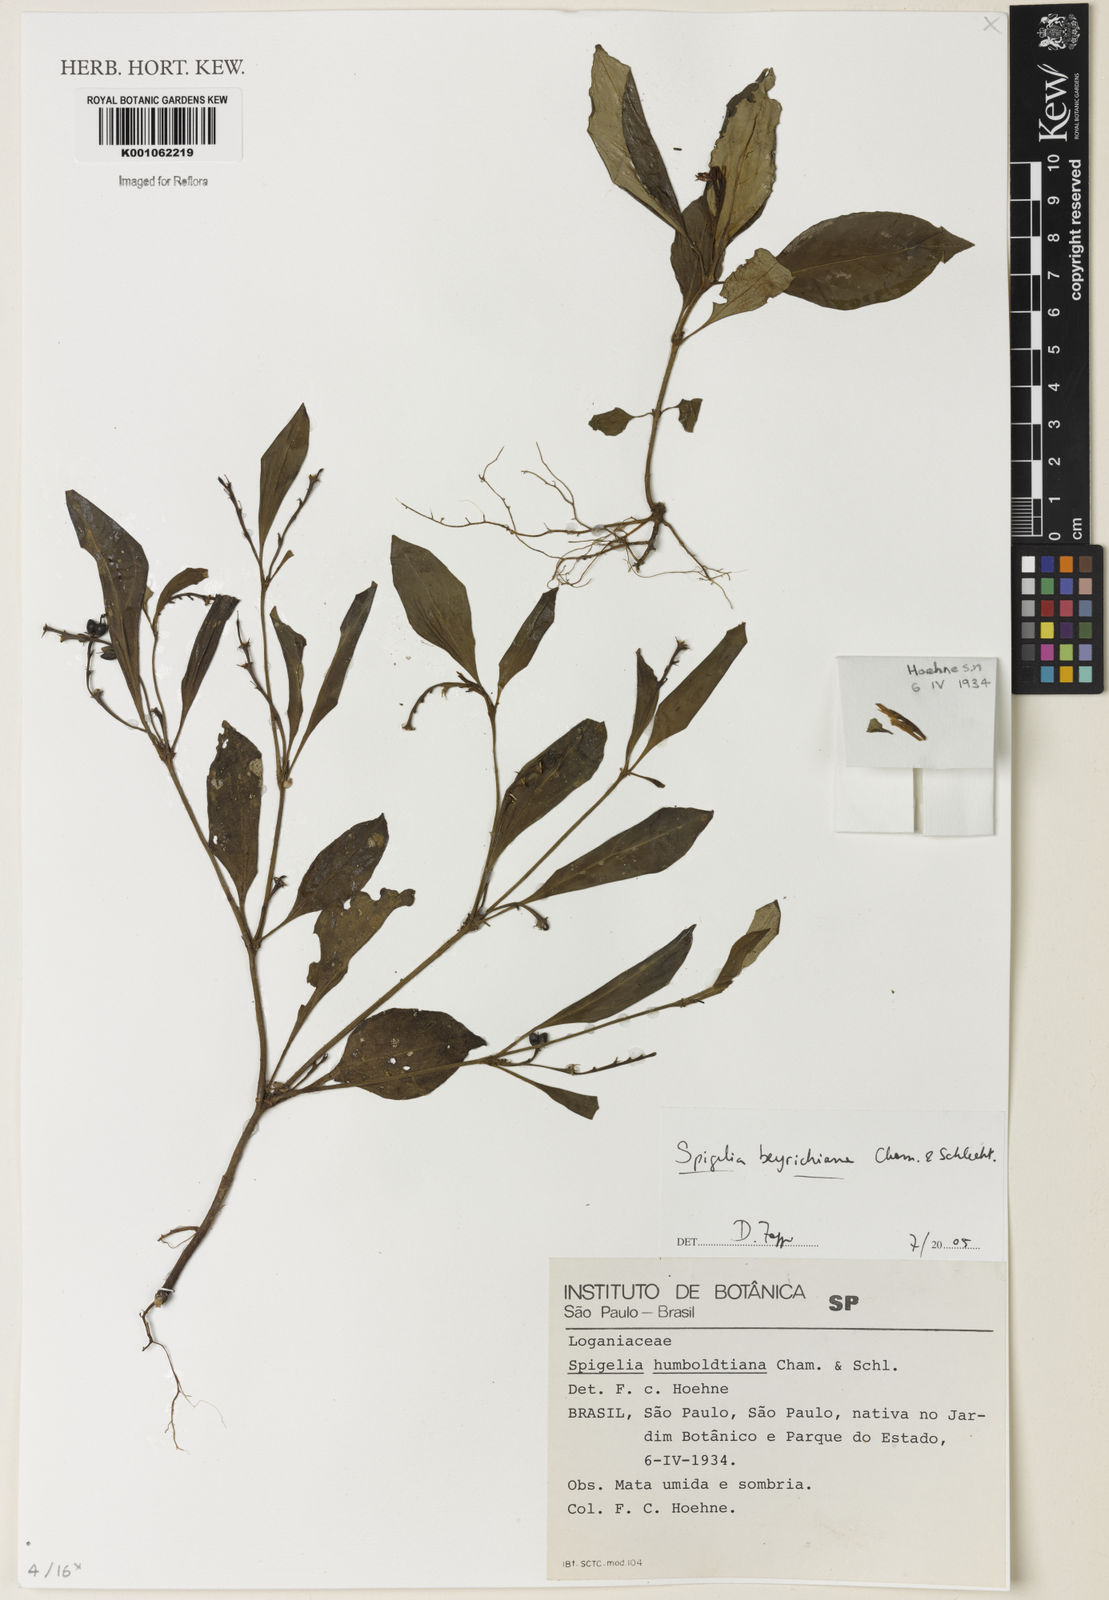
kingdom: Plantae
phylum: Tracheophyta
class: Magnoliopsida
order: Gentianales
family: Loganiaceae
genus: Spigelia
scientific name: Spigelia beyrichiana
